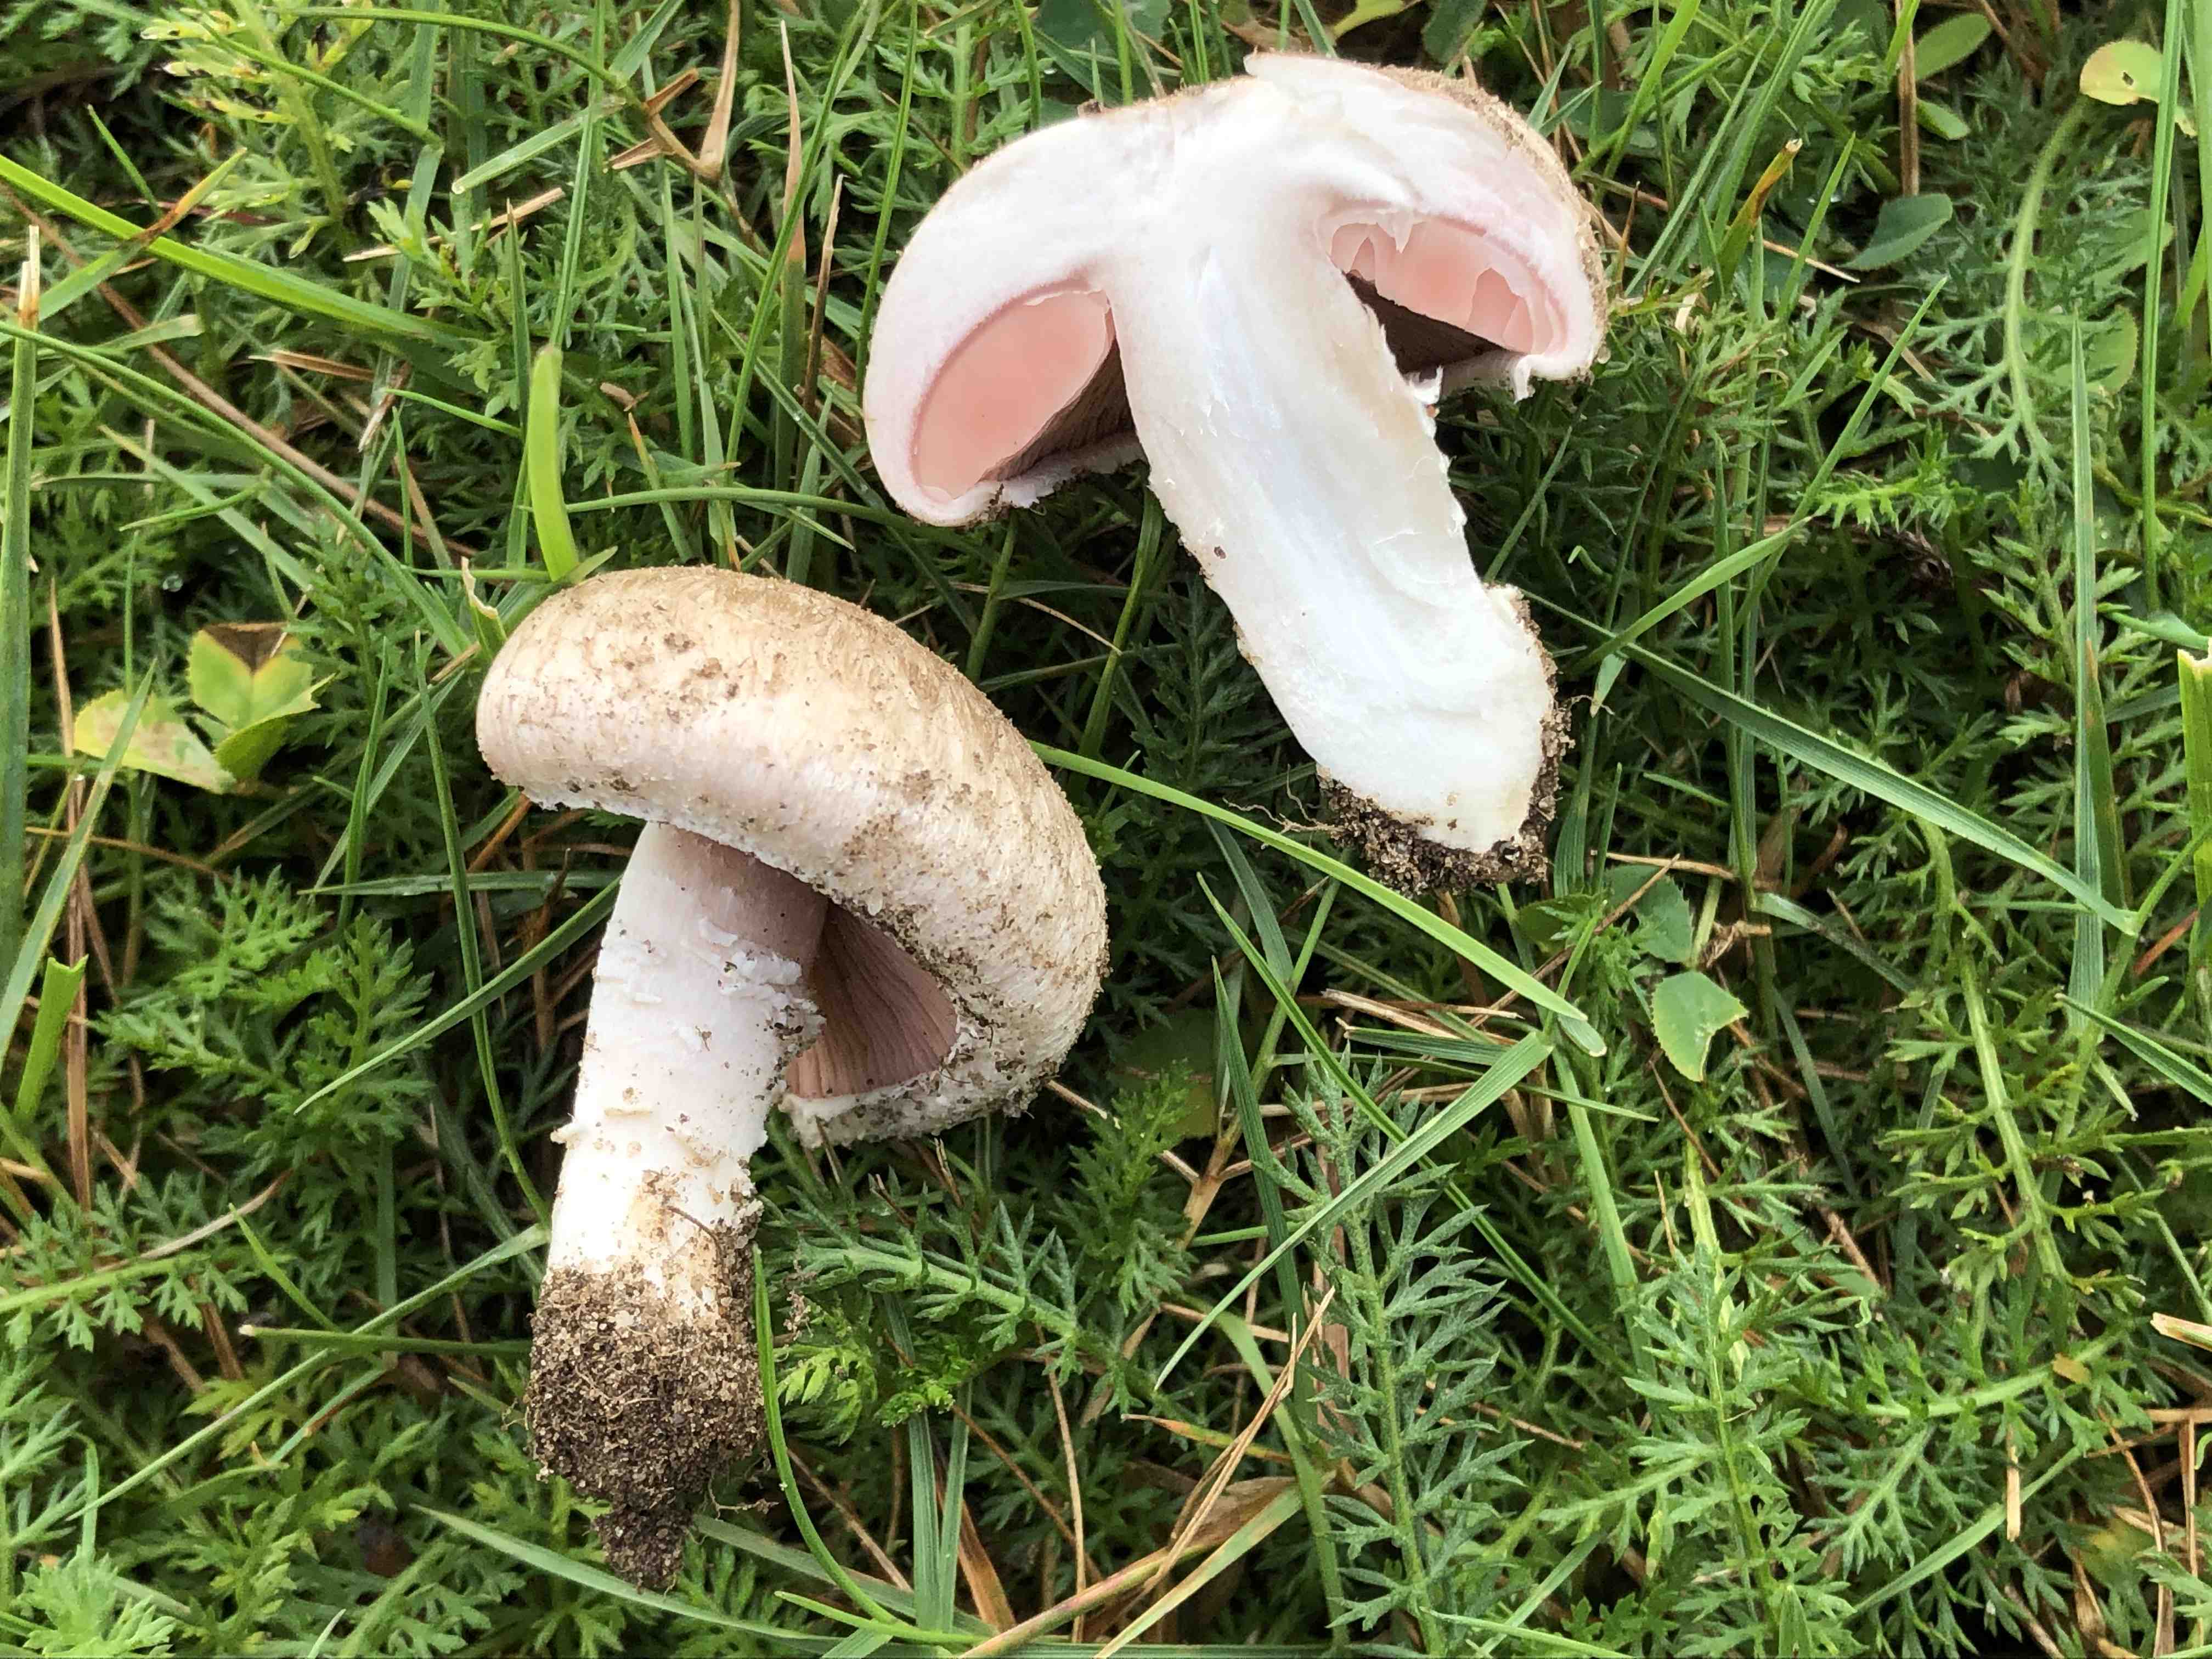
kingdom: Fungi
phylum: Basidiomycota
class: Agaricomycetes
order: Agaricales
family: Agaricaceae
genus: Agaricus
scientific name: Agaricus cupreobrunneus
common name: kobberbrun champignon
